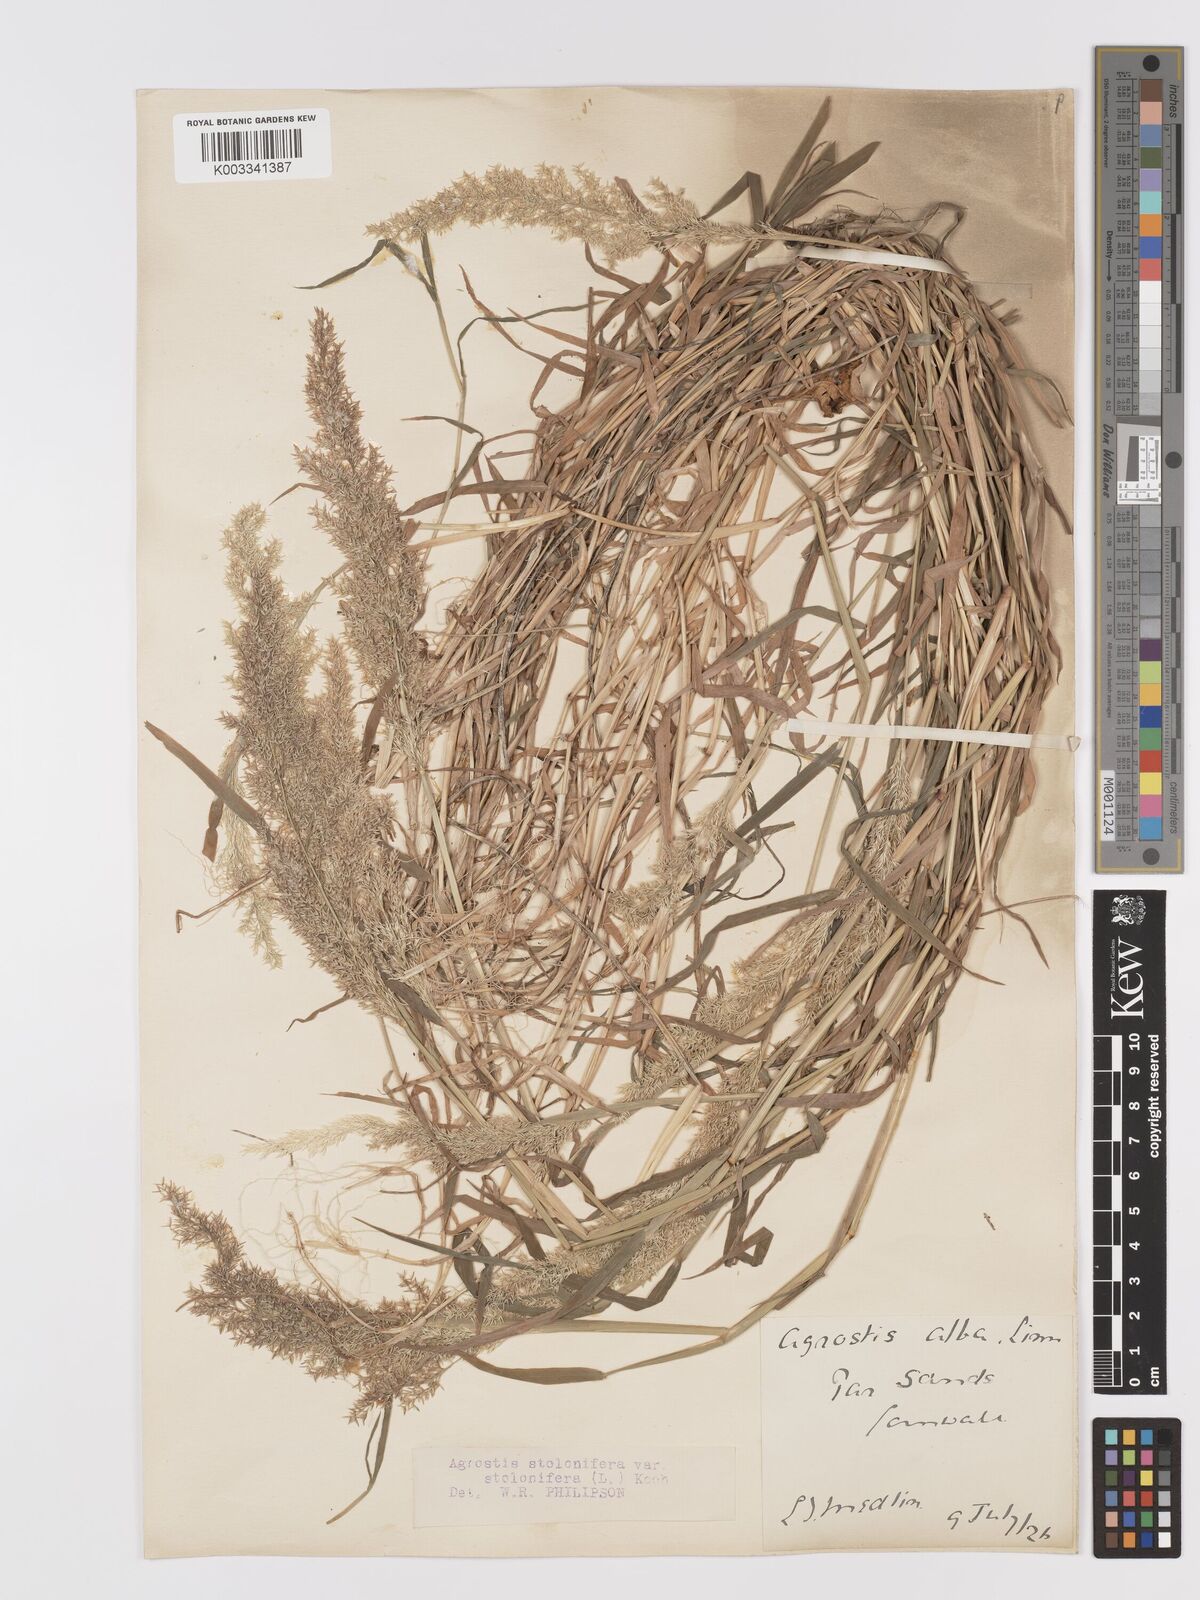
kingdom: Plantae
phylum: Tracheophyta
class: Liliopsida
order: Poales
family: Poaceae
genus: Agrostis
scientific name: Agrostis stolonifera
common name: Creeping bentgrass
